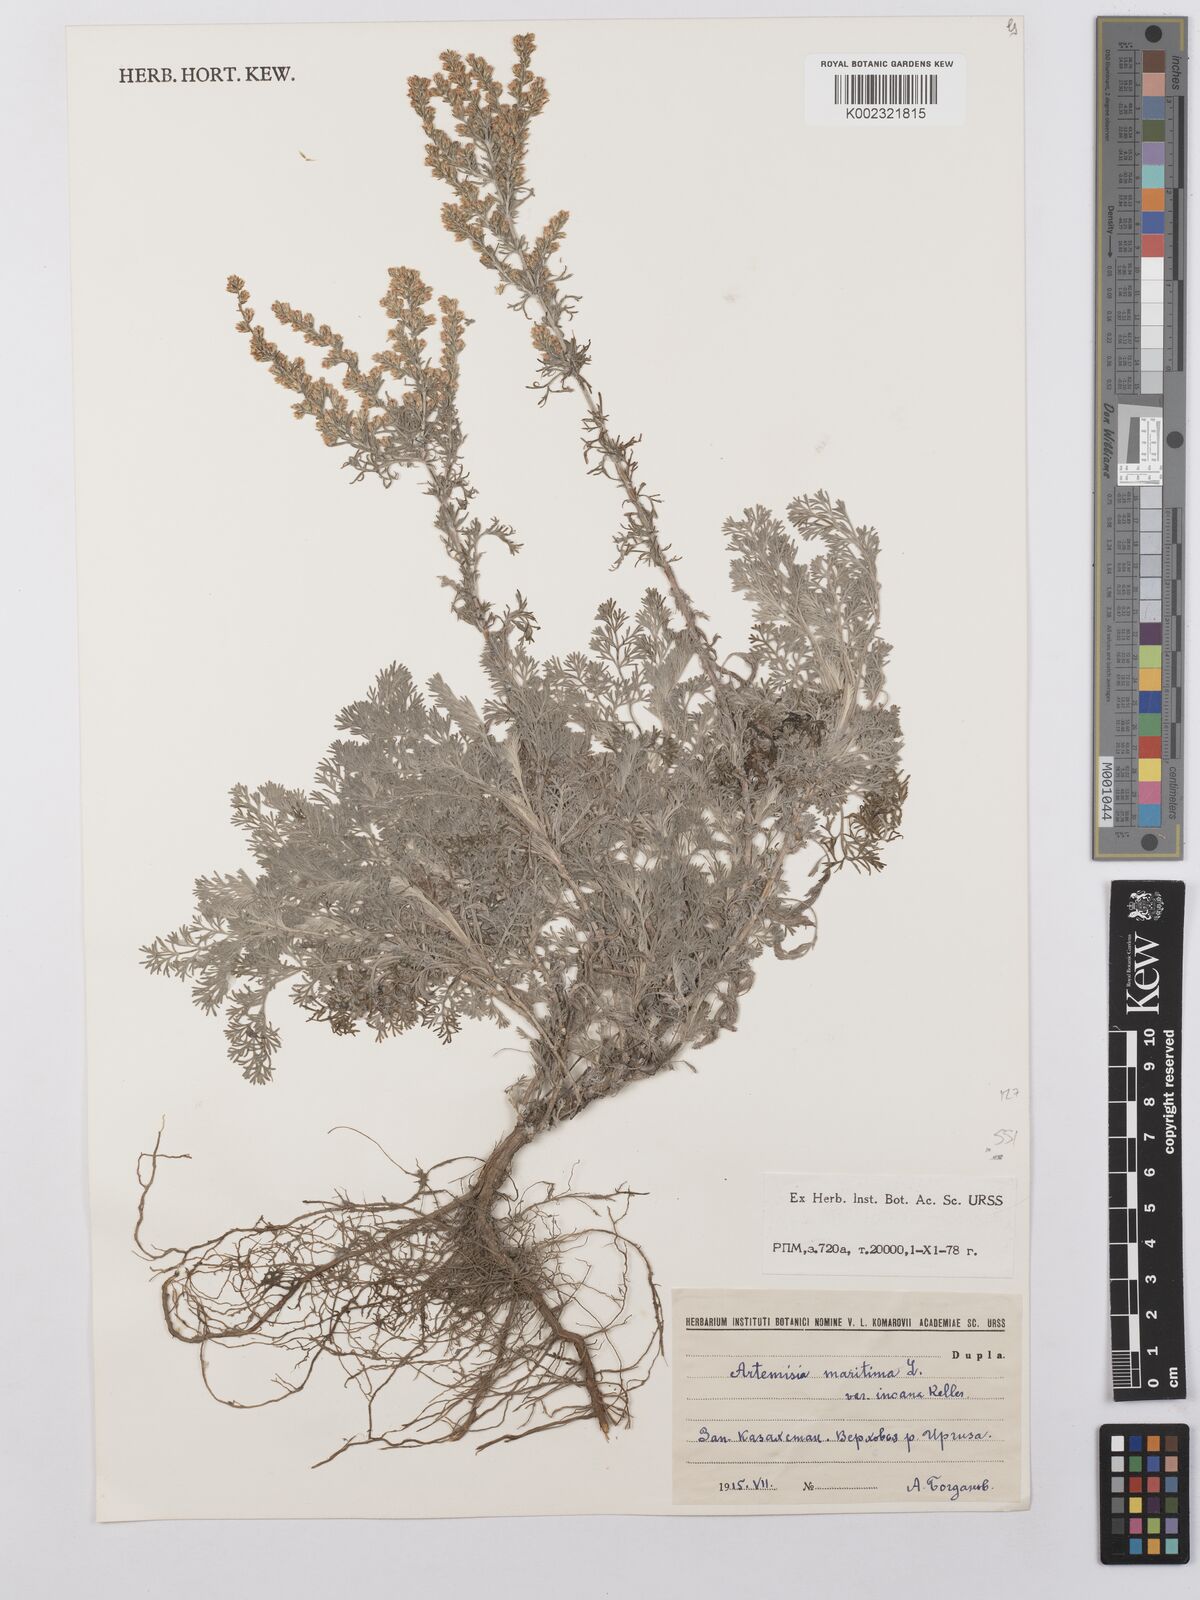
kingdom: Plantae
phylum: Tracheophyta
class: Magnoliopsida
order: Asterales
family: Asteraceae
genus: Artemisia
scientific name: Artemisia lercheana
